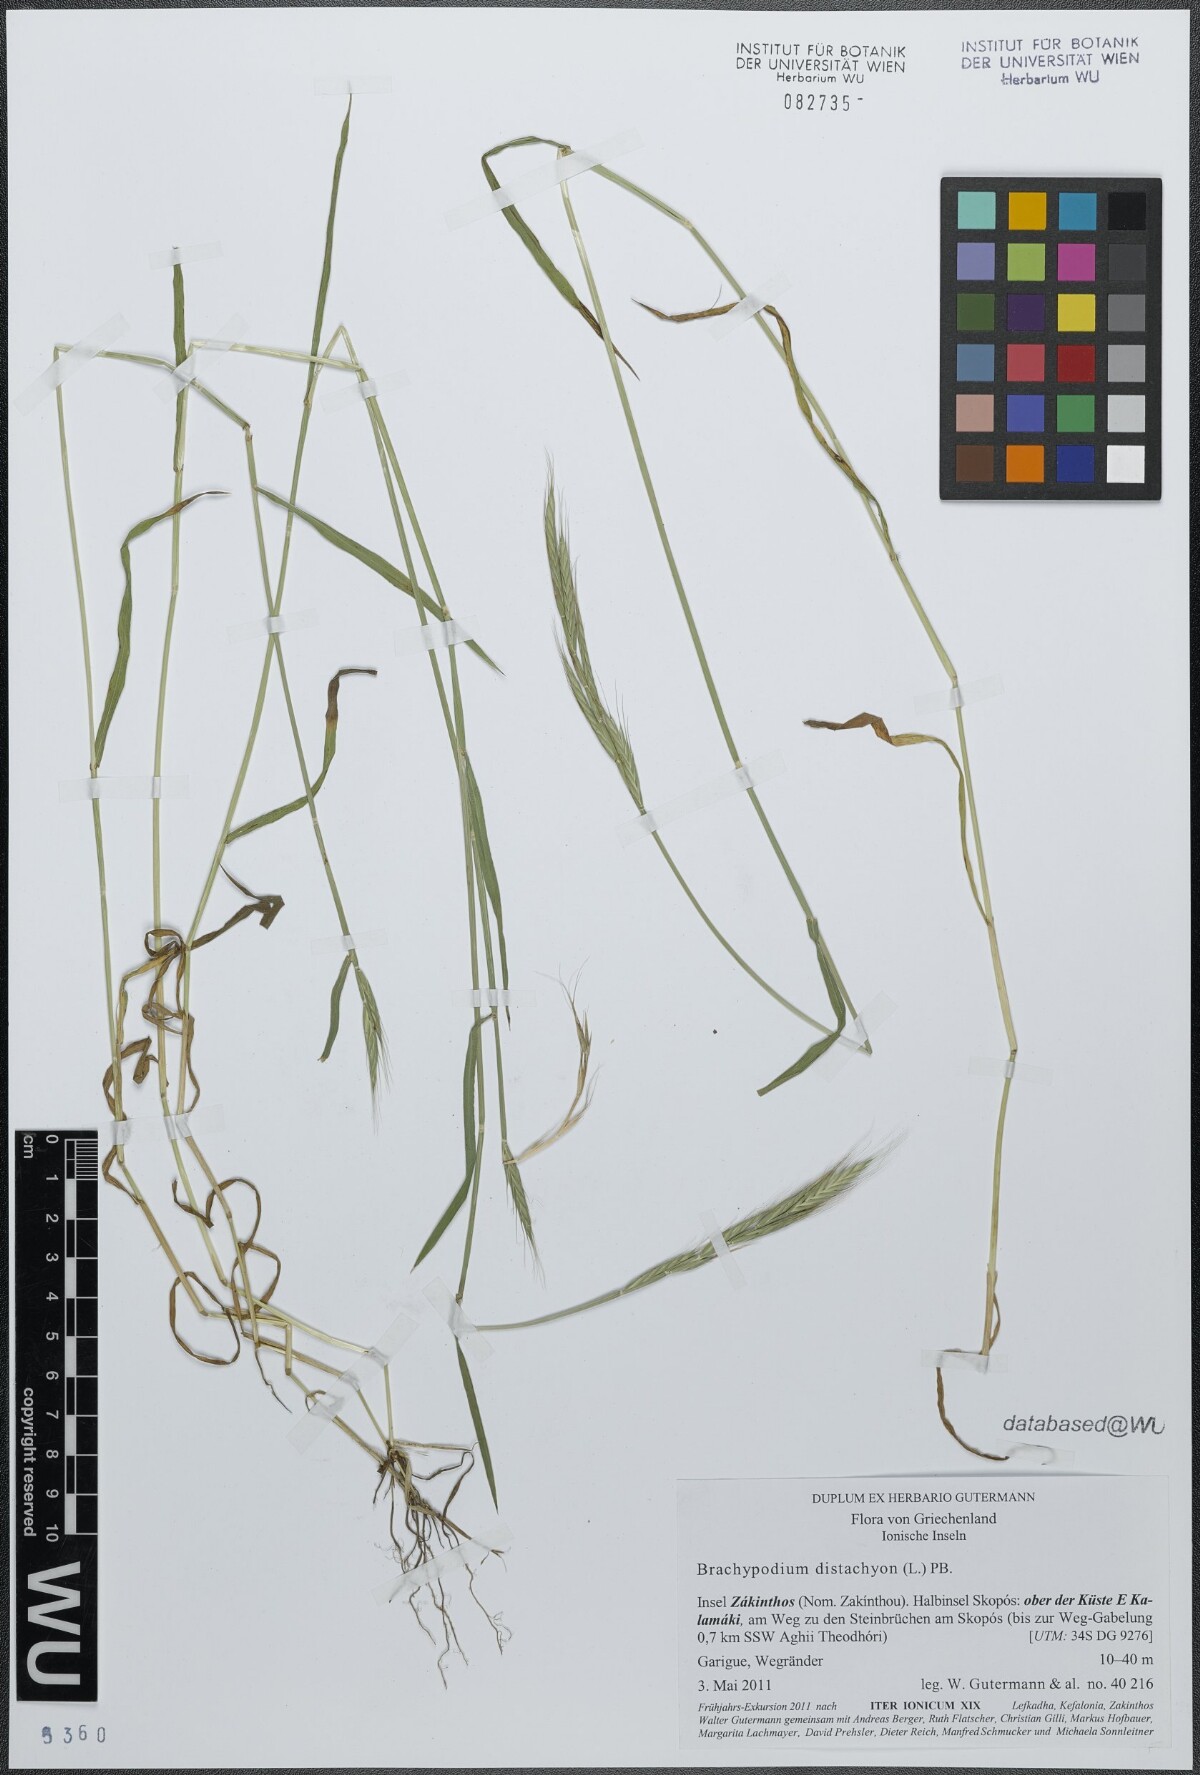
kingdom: Plantae
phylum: Tracheophyta
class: Liliopsida
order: Poales
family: Poaceae
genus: Brachypodium
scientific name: Brachypodium distachyon
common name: Stiff brome
